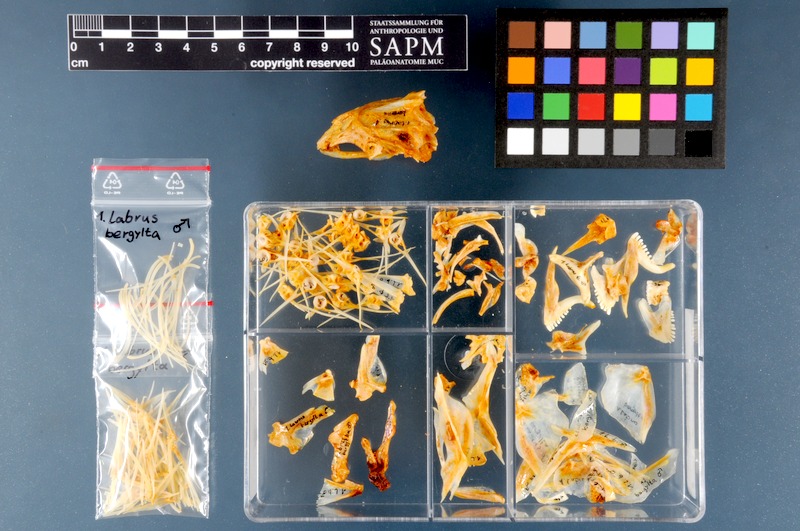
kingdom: Animalia
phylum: Chordata
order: Perciformes
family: Labridae
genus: Labrus
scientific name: Labrus bergylta
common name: Ballan wrasse
